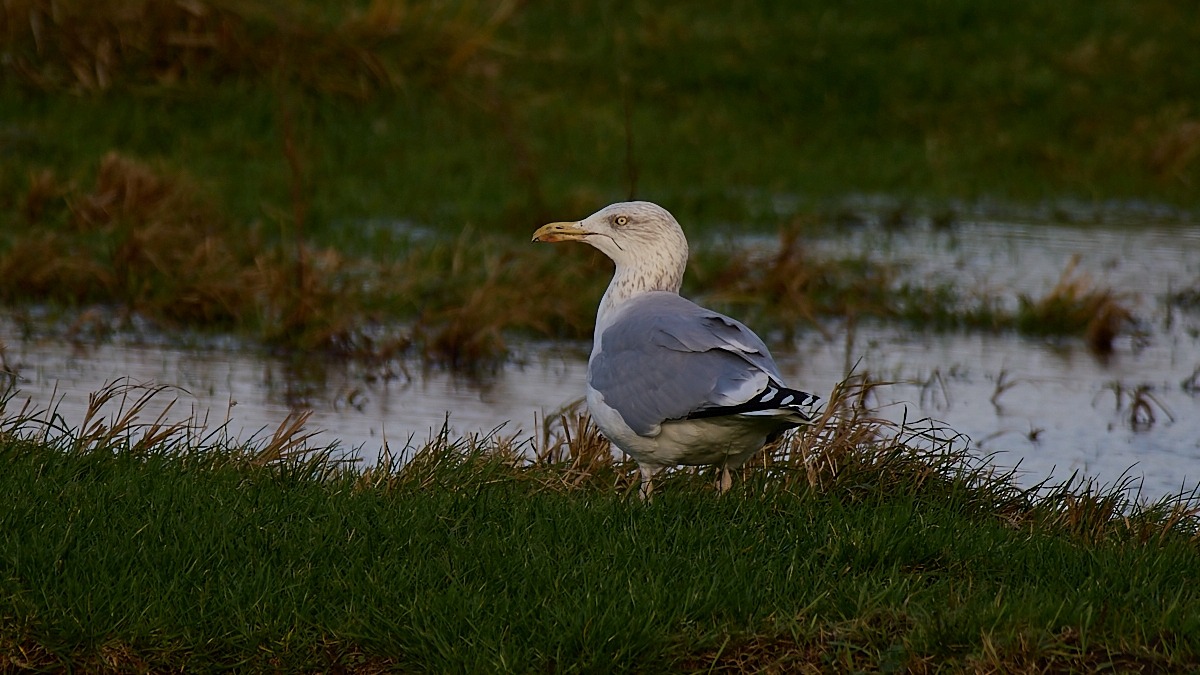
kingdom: Animalia
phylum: Chordata
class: Aves
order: Charadriiformes
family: Laridae
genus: Larus
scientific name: Larus argentatus
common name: Sølvmåge
